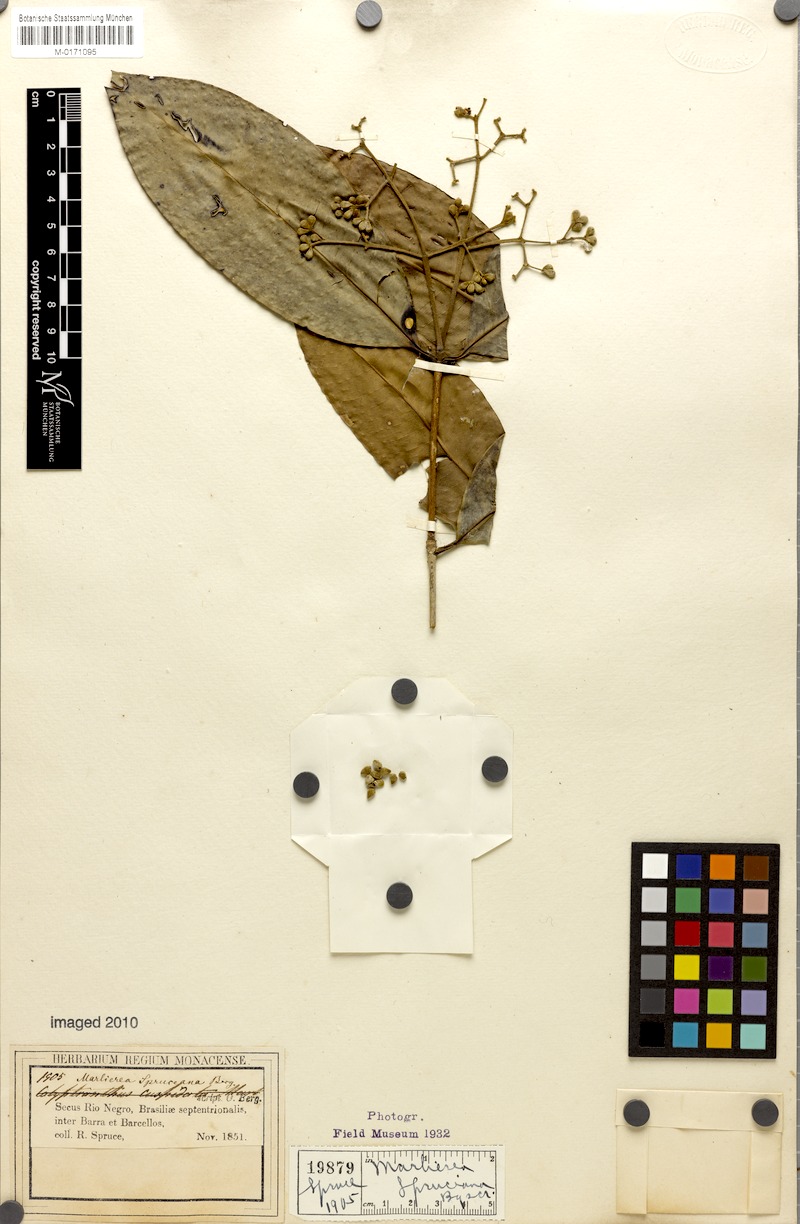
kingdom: Plantae
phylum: Tracheophyta
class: Magnoliopsida
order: Myrtales
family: Myrtaceae
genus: Myrcia
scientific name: Myrcia argentigemma
